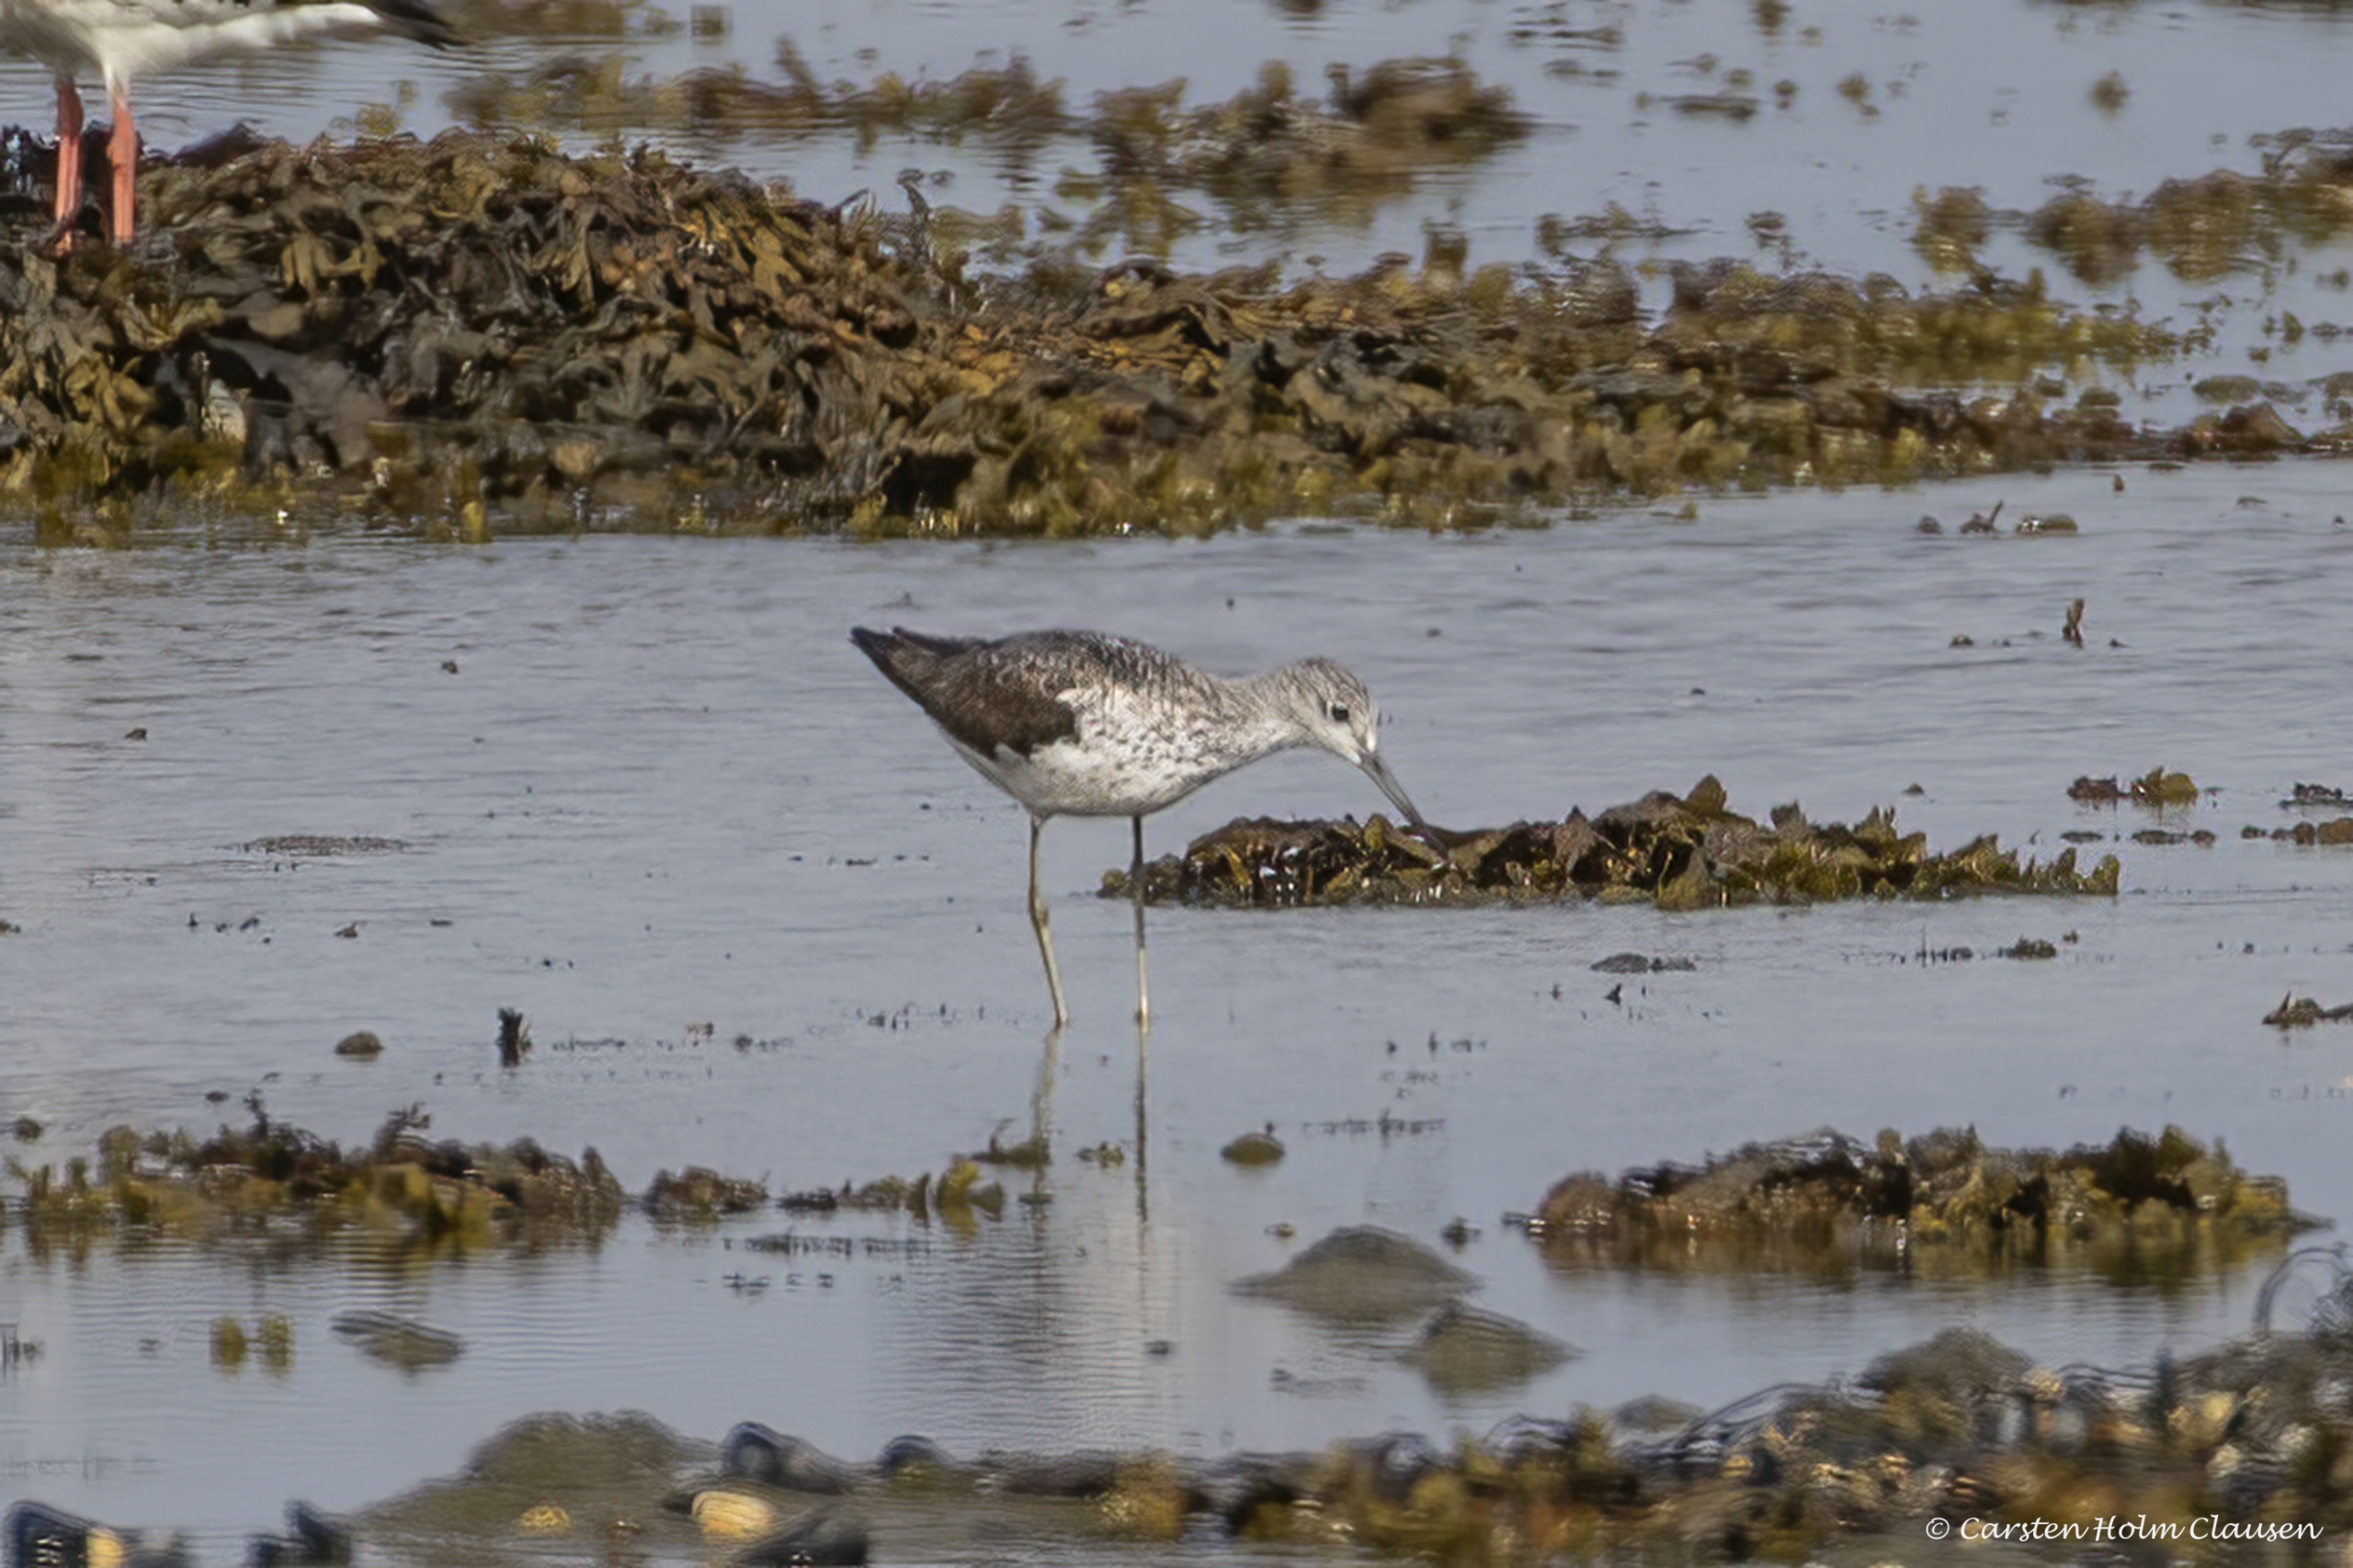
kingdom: Animalia
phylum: Chordata
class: Aves
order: Charadriiformes
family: Scolopacidae
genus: Tringa
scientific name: Tringa nebularia
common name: Hvidklire
